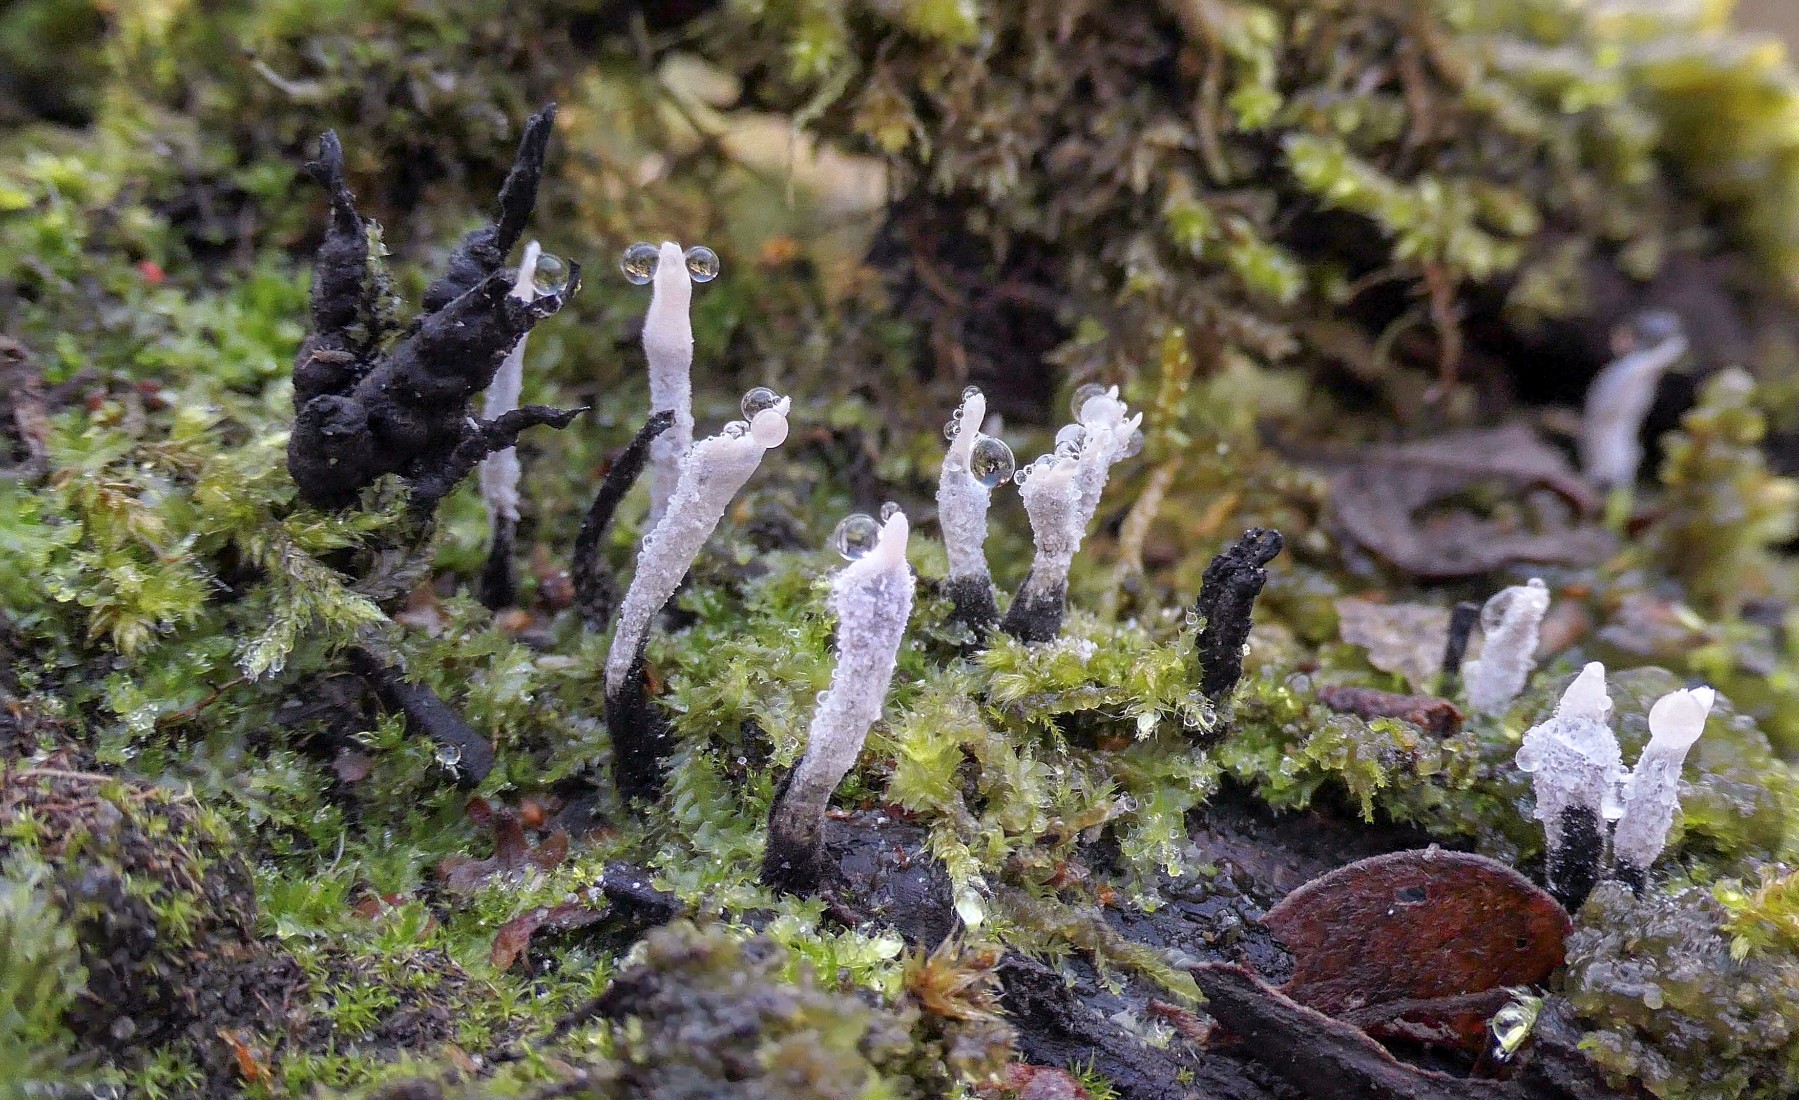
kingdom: Fungi
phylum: Ascomycota
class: Sordariomycetes
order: Xylariales
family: Xylariaceae
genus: Xylaria
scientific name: Xylaria hypoxylon
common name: grenet stødsvamp
